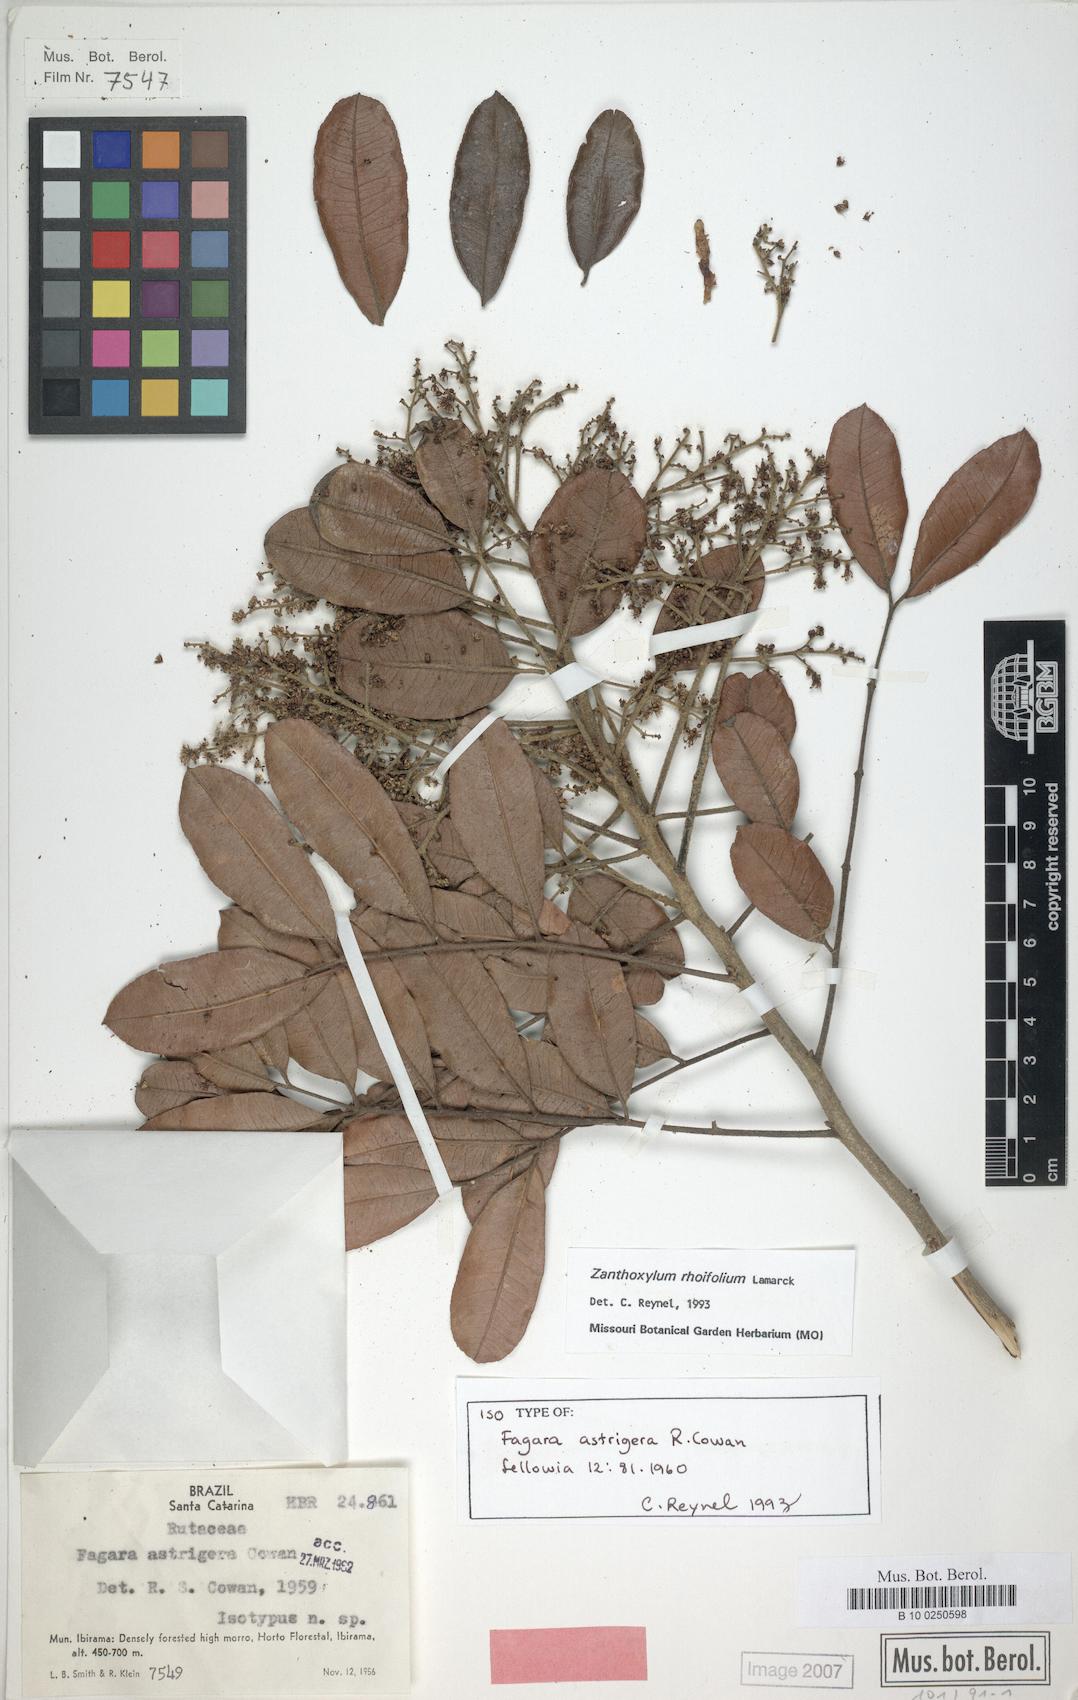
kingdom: Plantae
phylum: Tracheophyta
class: Magnoliopsida
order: Sapindales
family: Rutaceae
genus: Zanthoxylum
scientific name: Zanthoxylum rhoifolium
